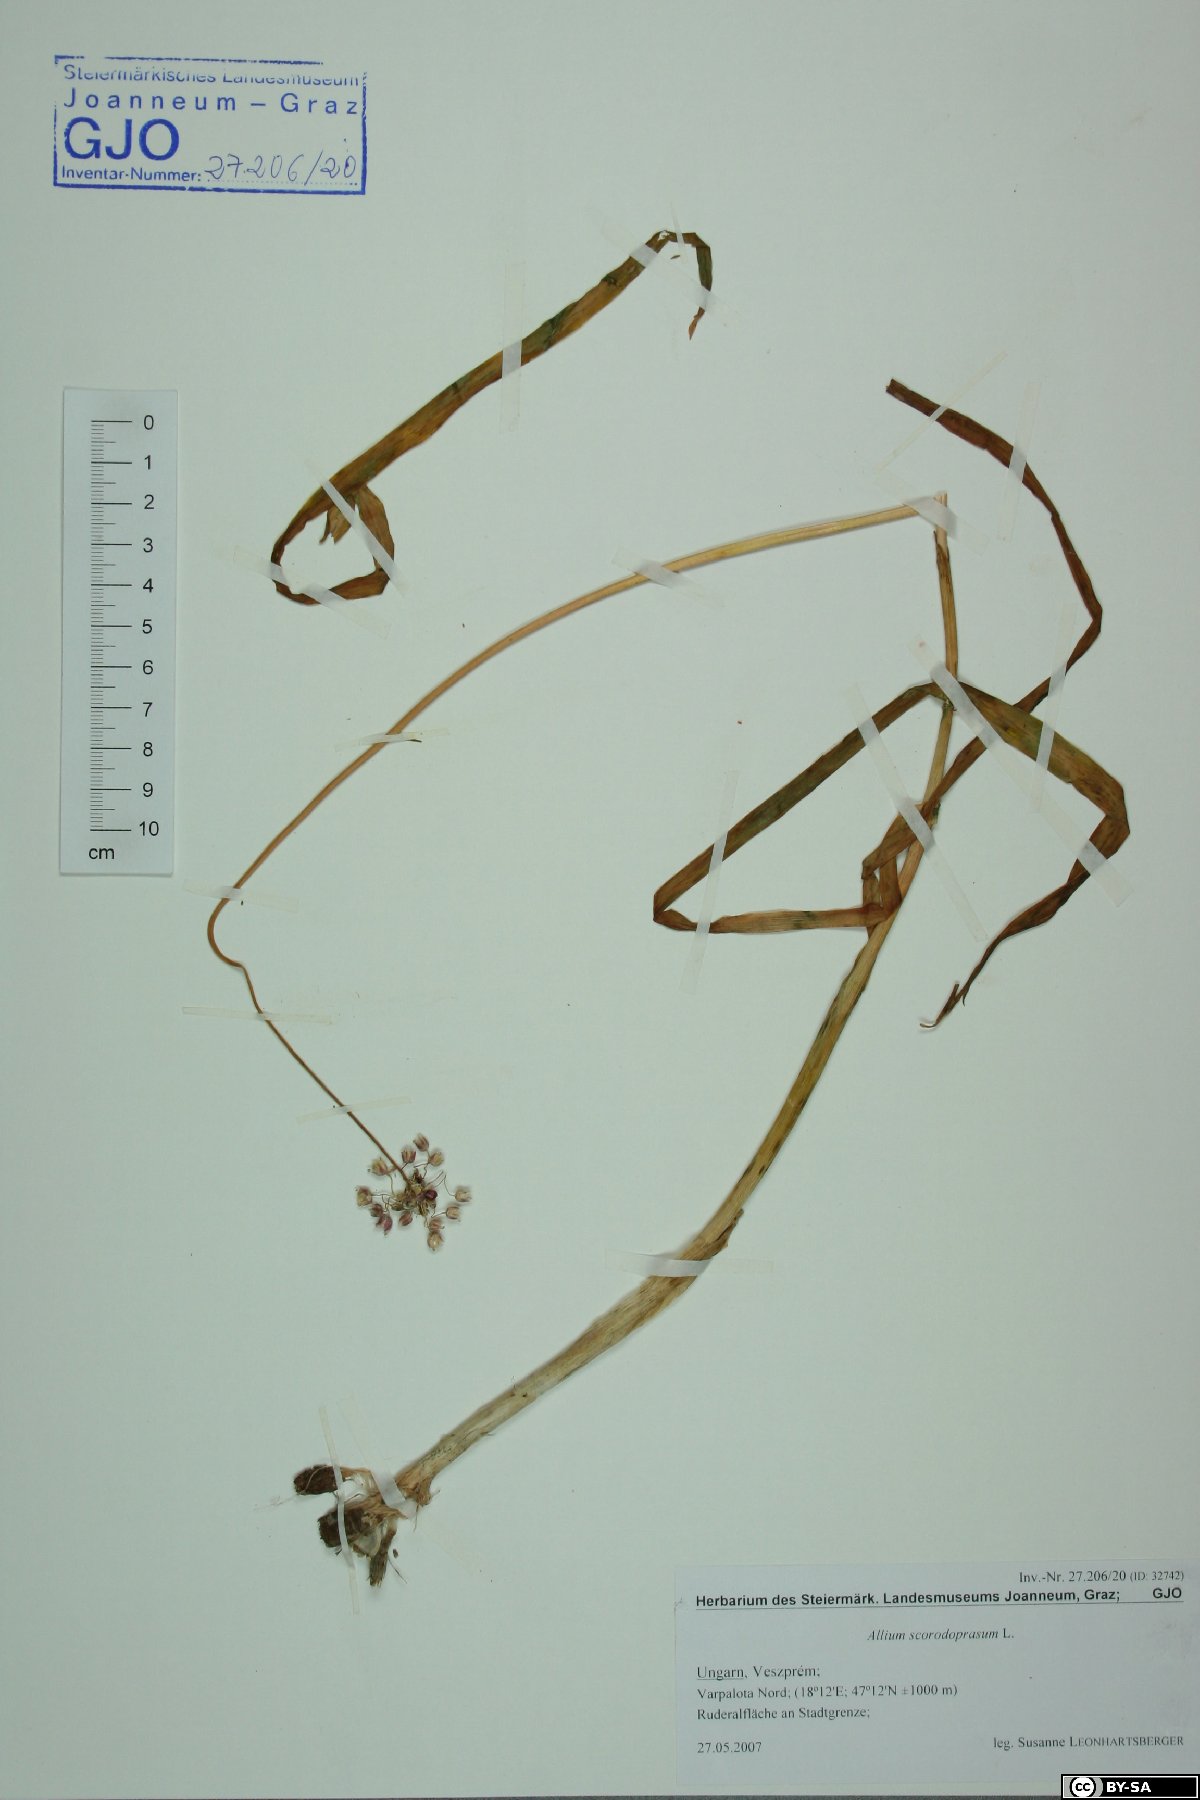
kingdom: Plantae
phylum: Tracheophyta
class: Liliopsida
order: Asparagales
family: Amaryllidaceae
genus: Allium
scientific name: Allium scorodoprasum
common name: Sand leek
